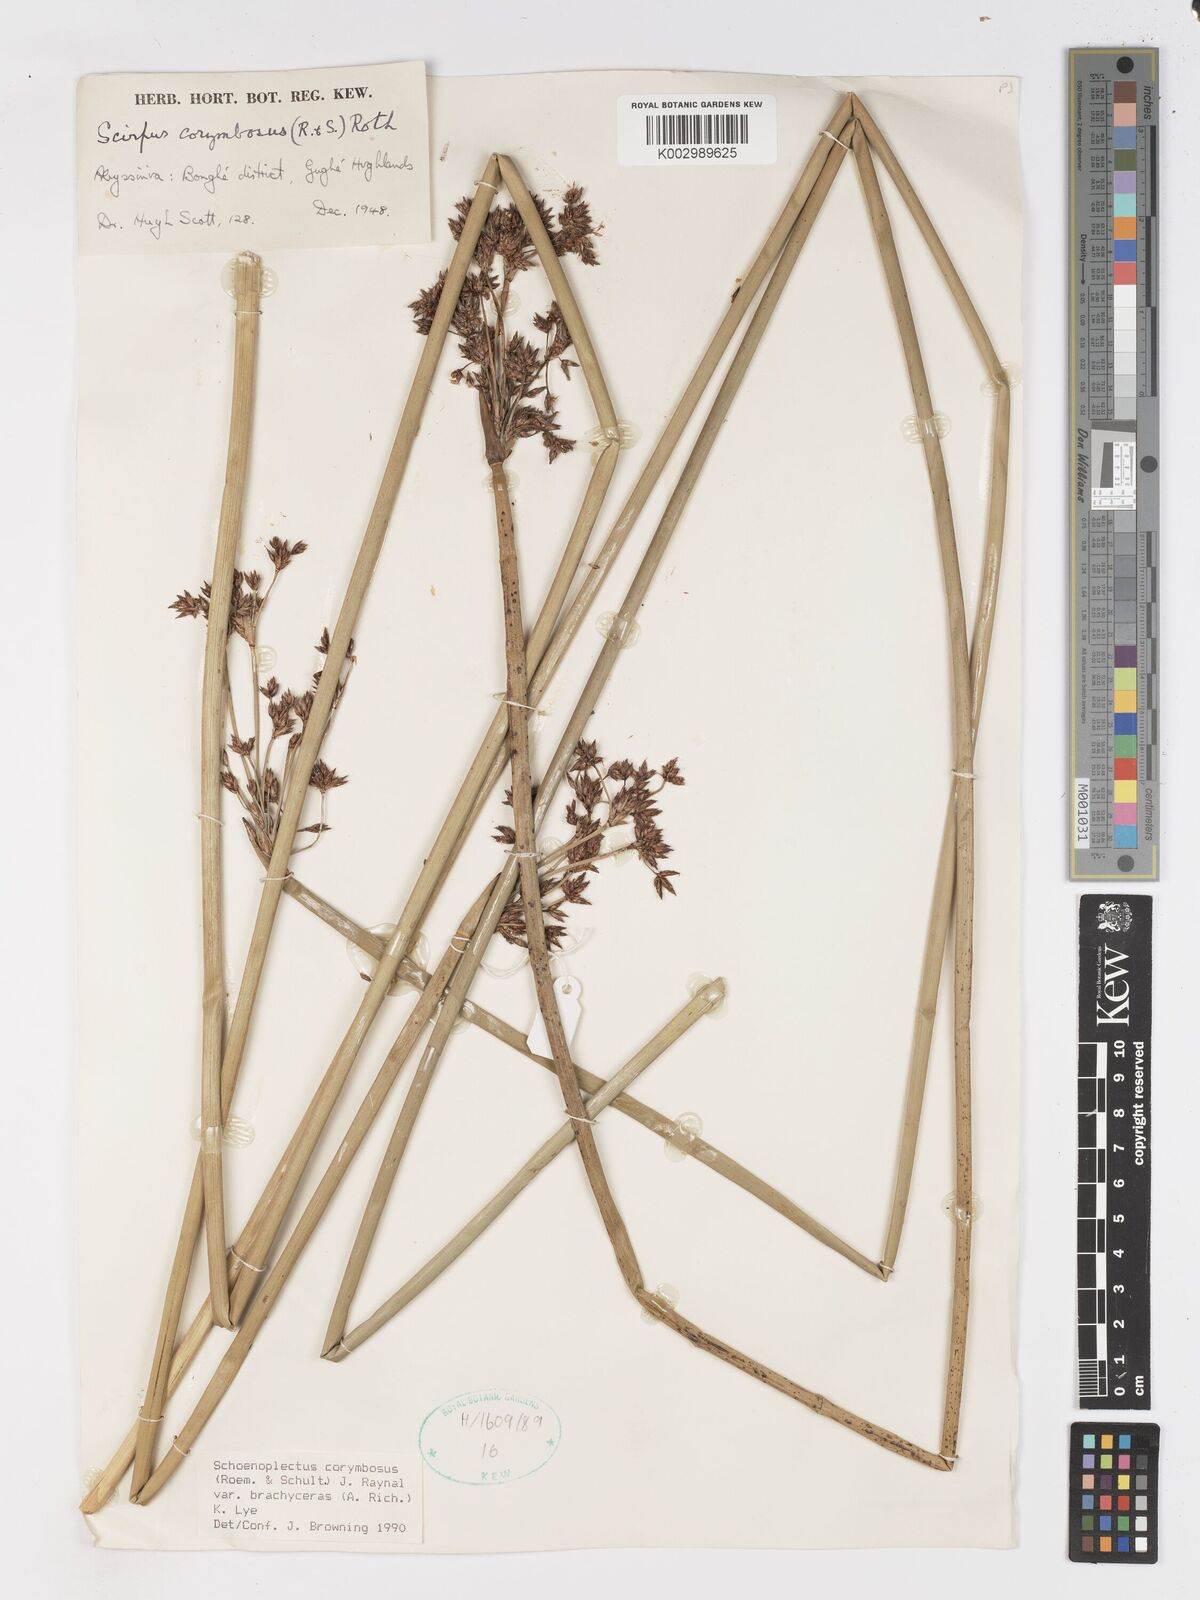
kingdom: Plantae
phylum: Tracheophyta
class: Liliopsida
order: Poales
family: Cyperaceae
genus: Schoenoplectiella
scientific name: Schoenoplectiella brachyceras
